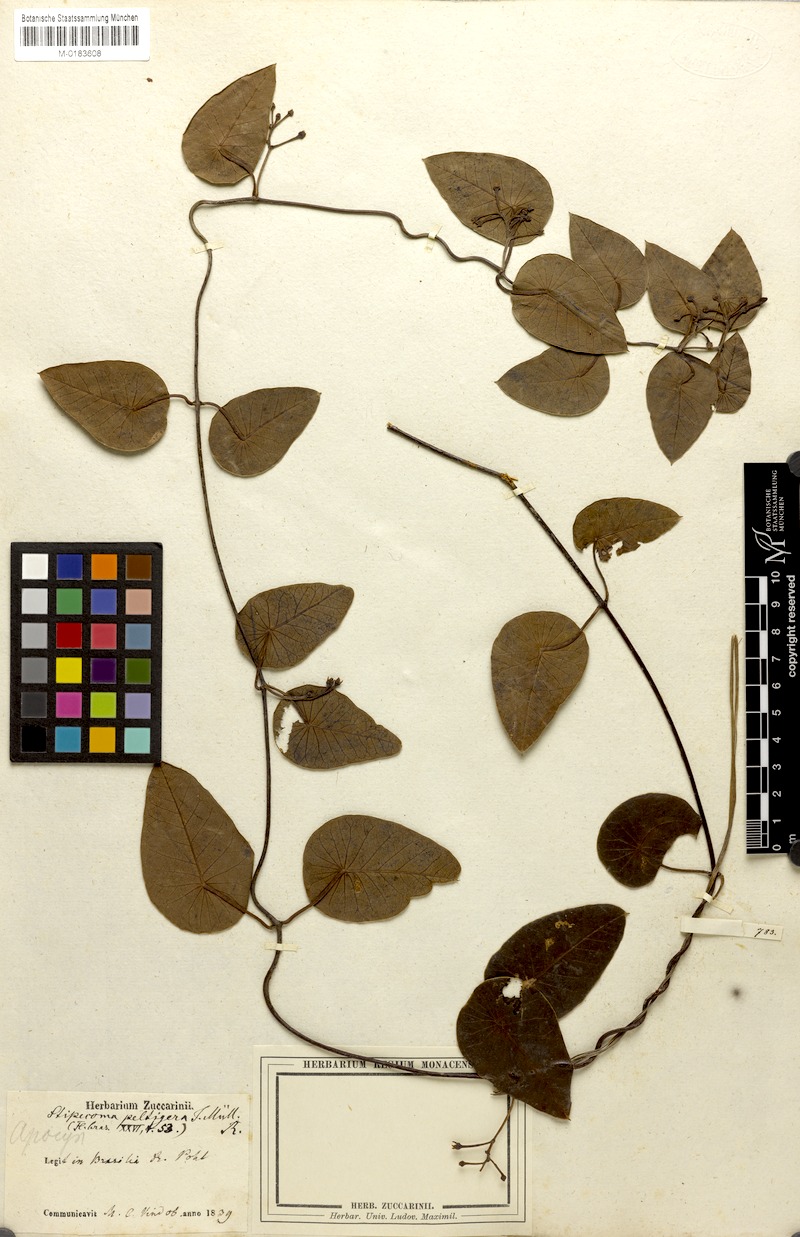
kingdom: Plantae
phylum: Tracheophyta
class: Magnoliopsida
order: Gentianales
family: Apocynaceae
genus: Stipecoma
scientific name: Stipecoma peltigera
